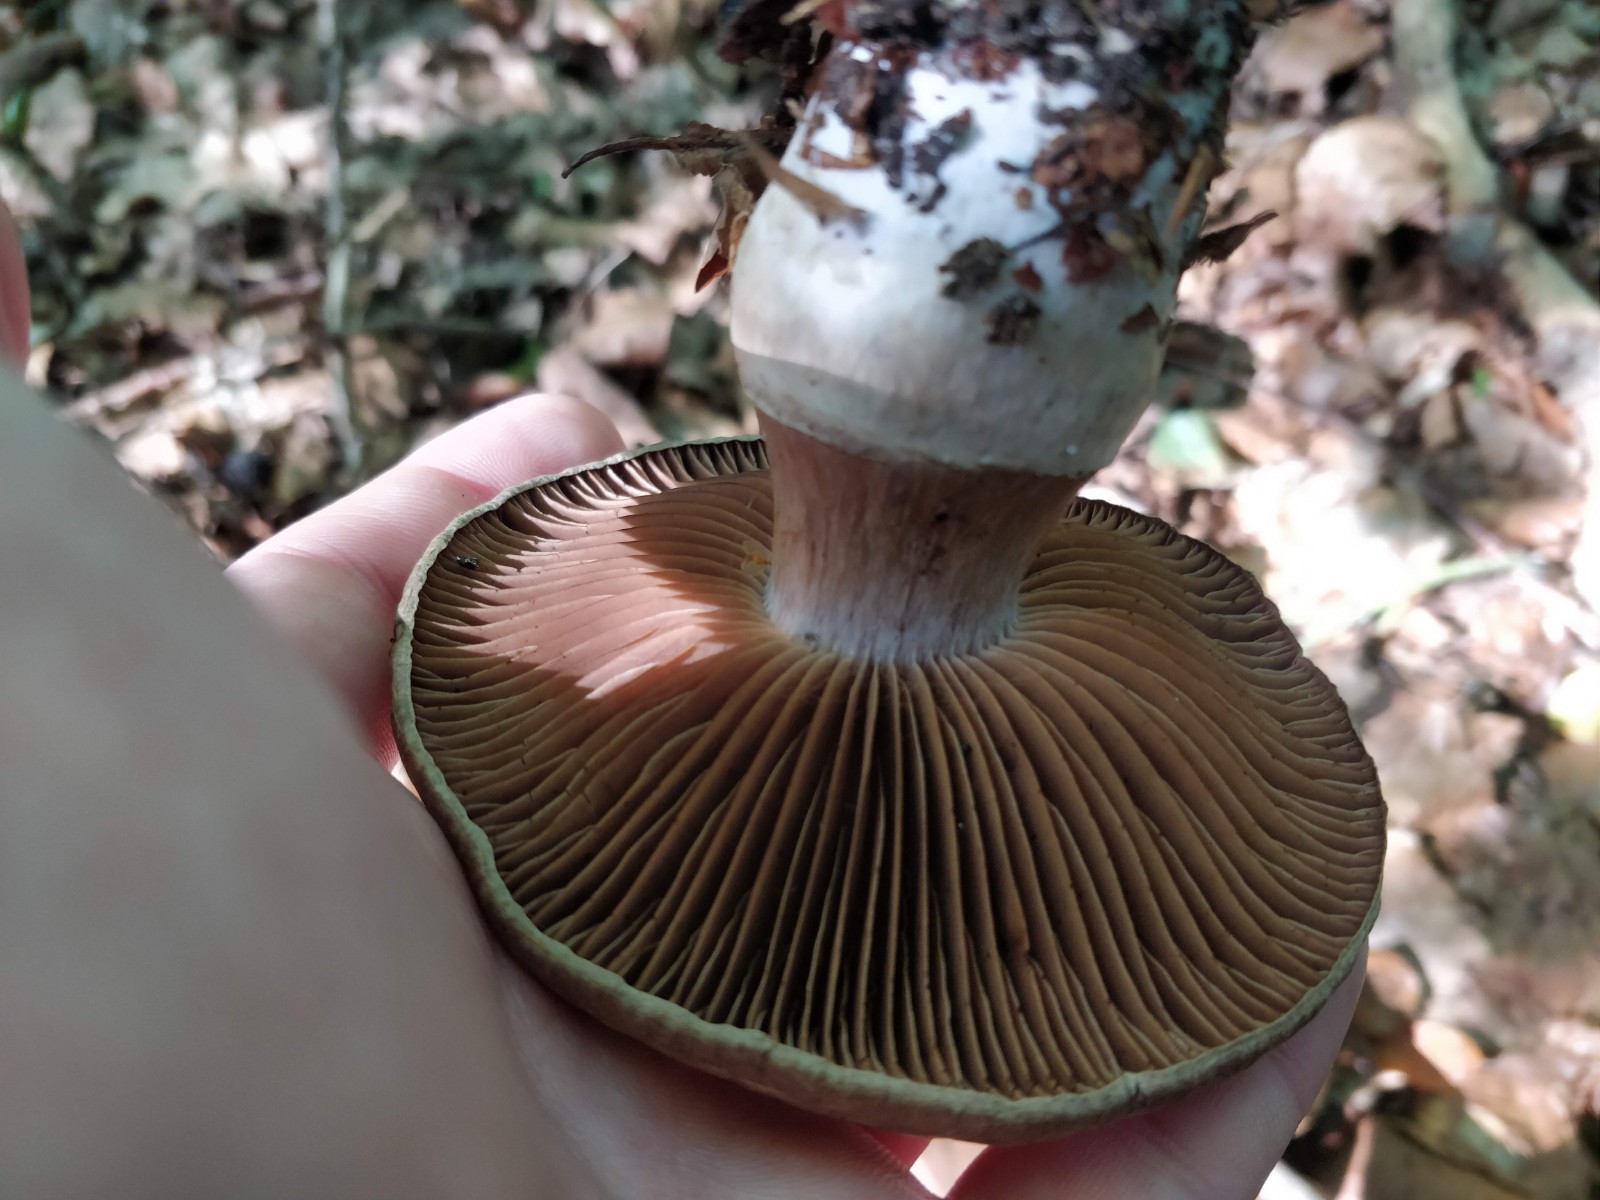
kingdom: Fungi
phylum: Basidiomycota
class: Agaricomycetes
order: Agaricales
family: Cortinariaceae
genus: Cortinarius
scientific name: Cortinarius torvus
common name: champignonagtig slørhat
